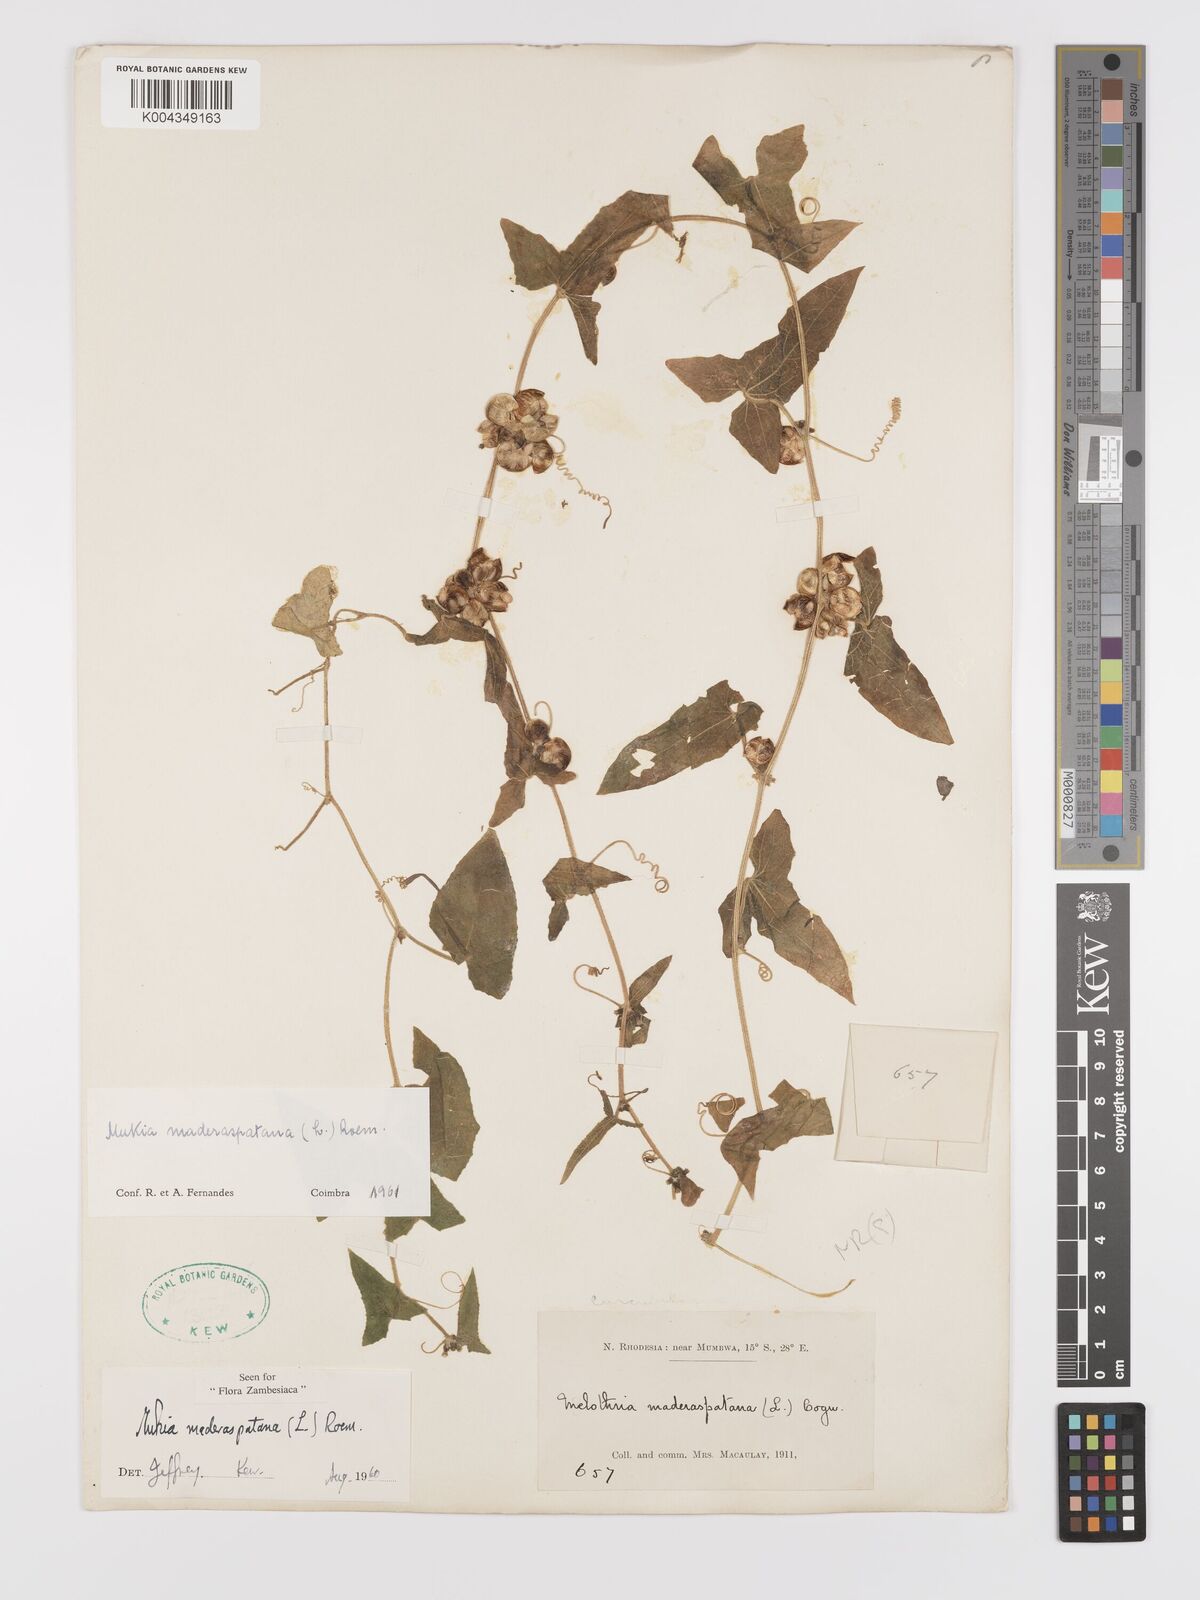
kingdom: Plantae
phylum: Tracheophyta
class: Magnoliopsida
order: Cucurbitales
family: Cucurbitaceae
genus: Cucumis
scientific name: Cucumis maderaspatanus
